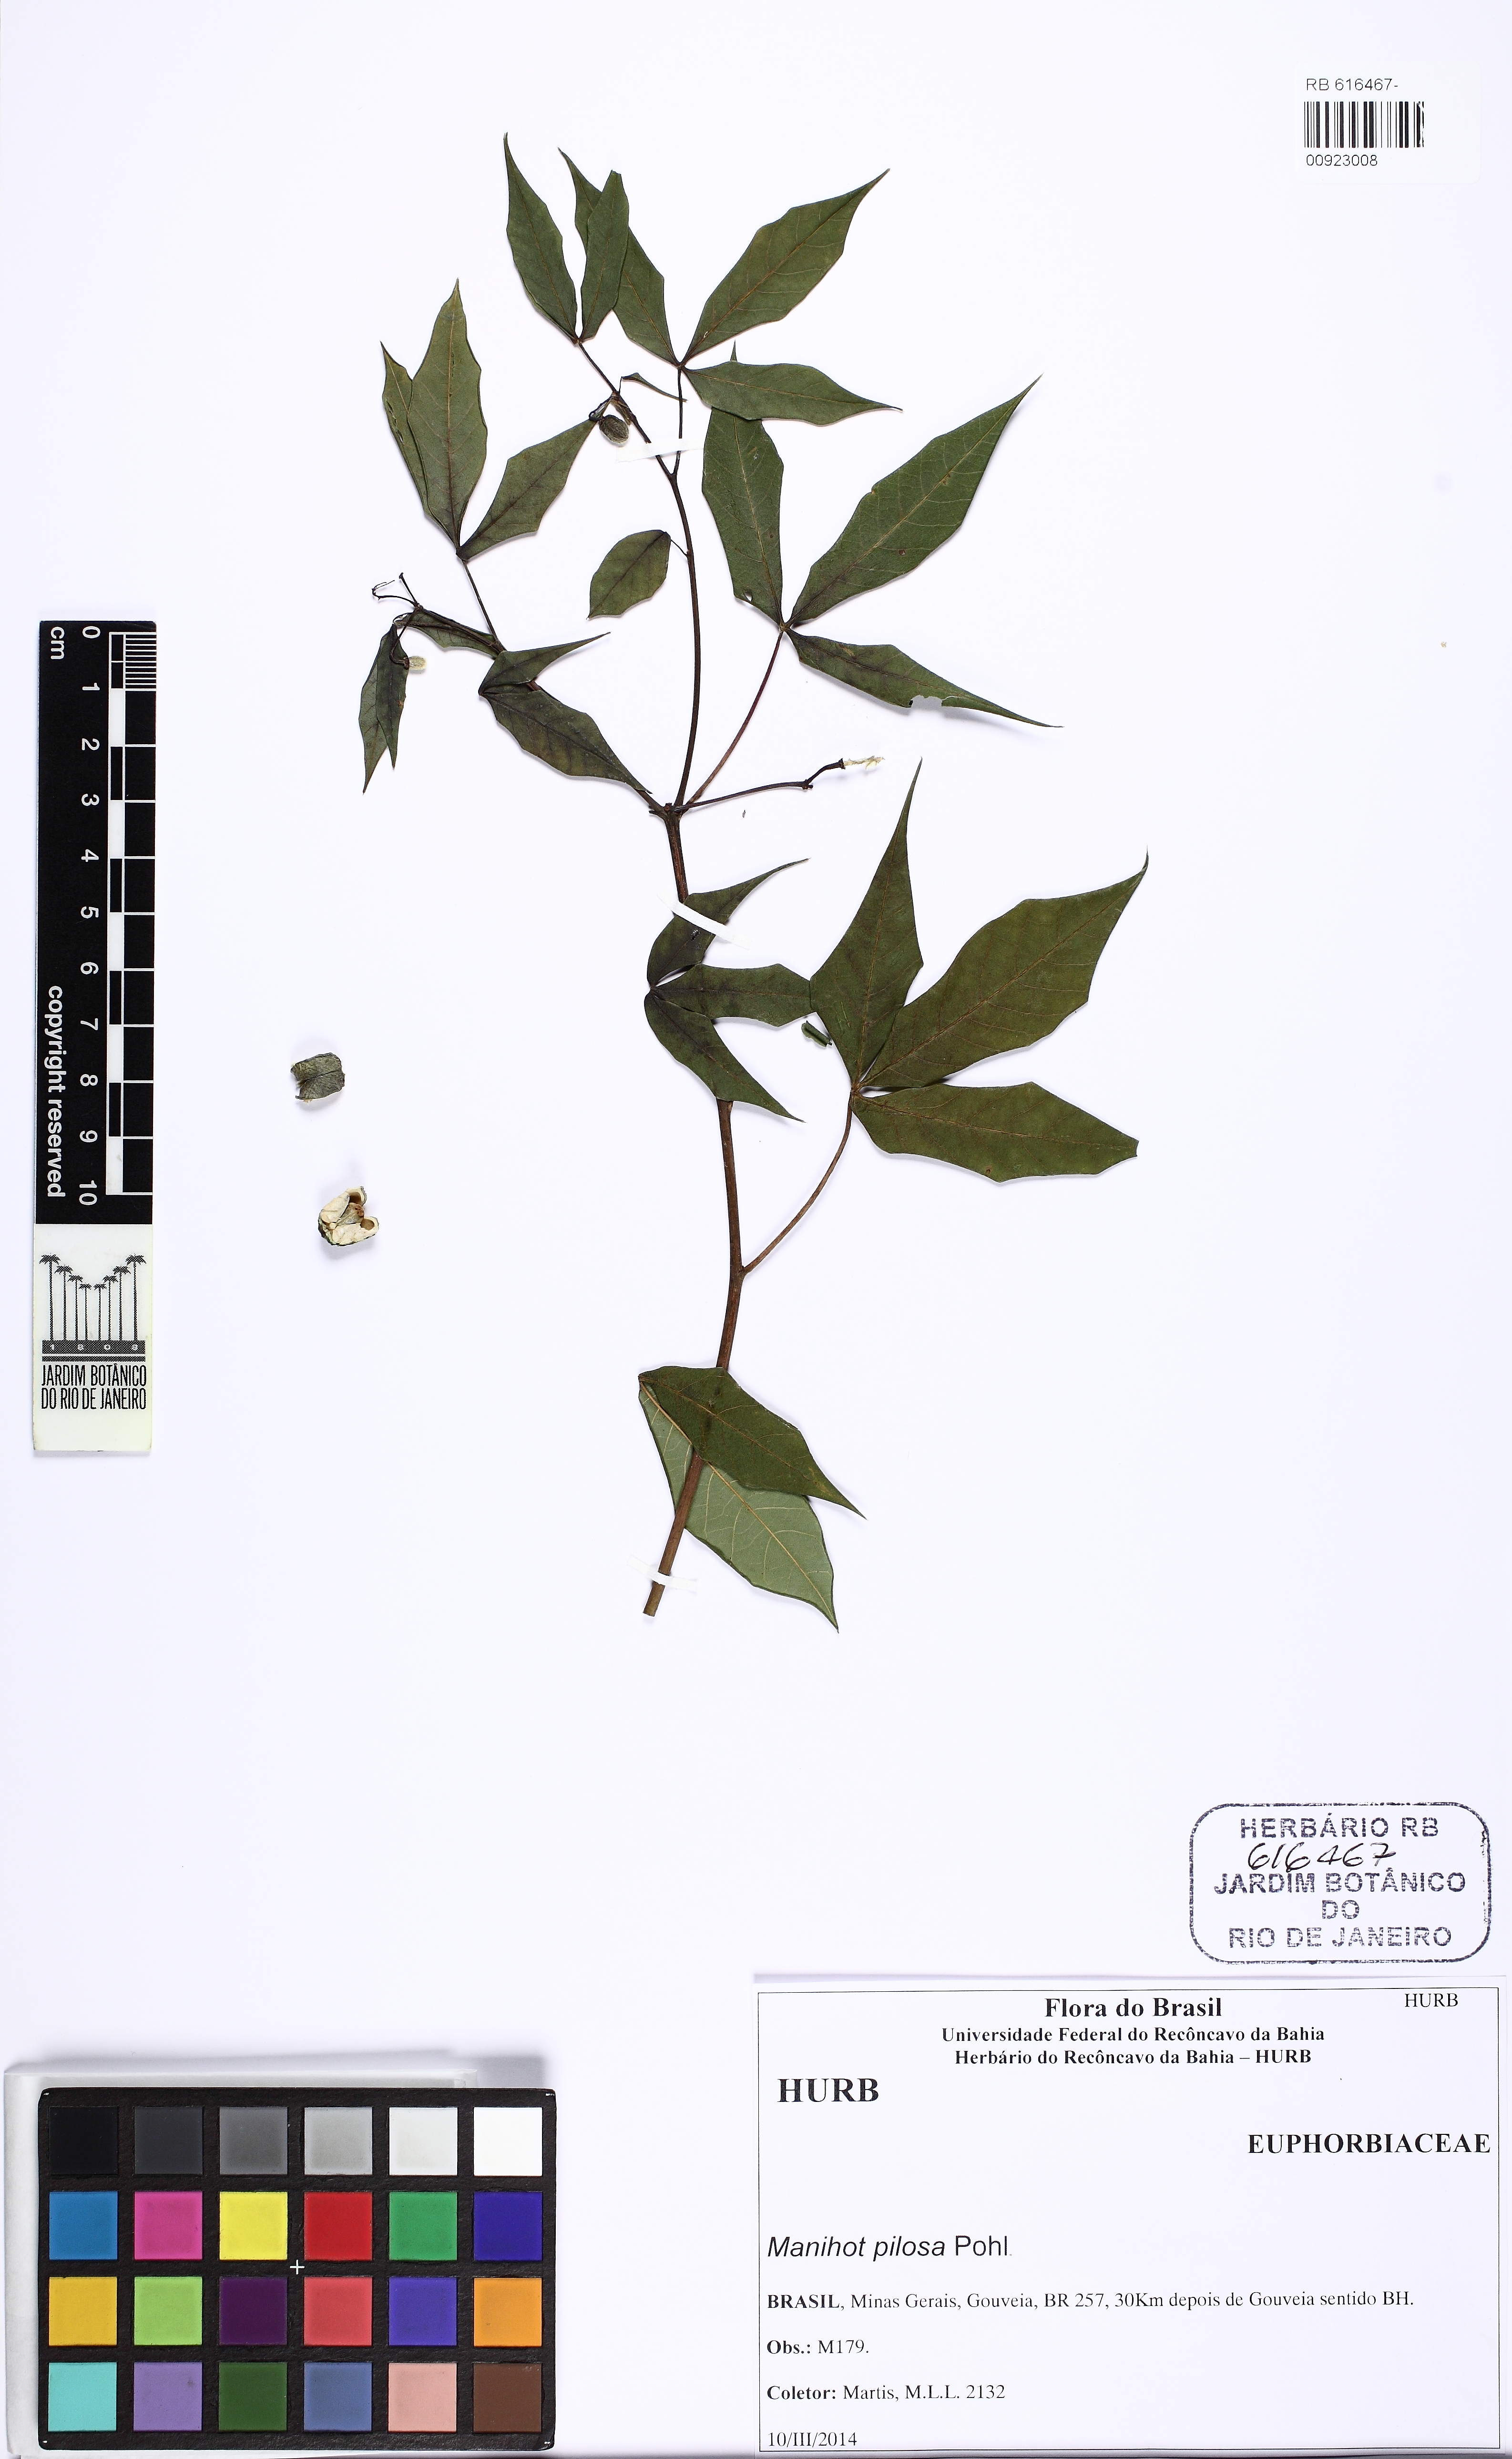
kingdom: Plantae
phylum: Tracheophyta
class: Magnoliopsida
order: Malpighiales
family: Euphorbiaceae
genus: Manihot
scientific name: Manihot pilosa
